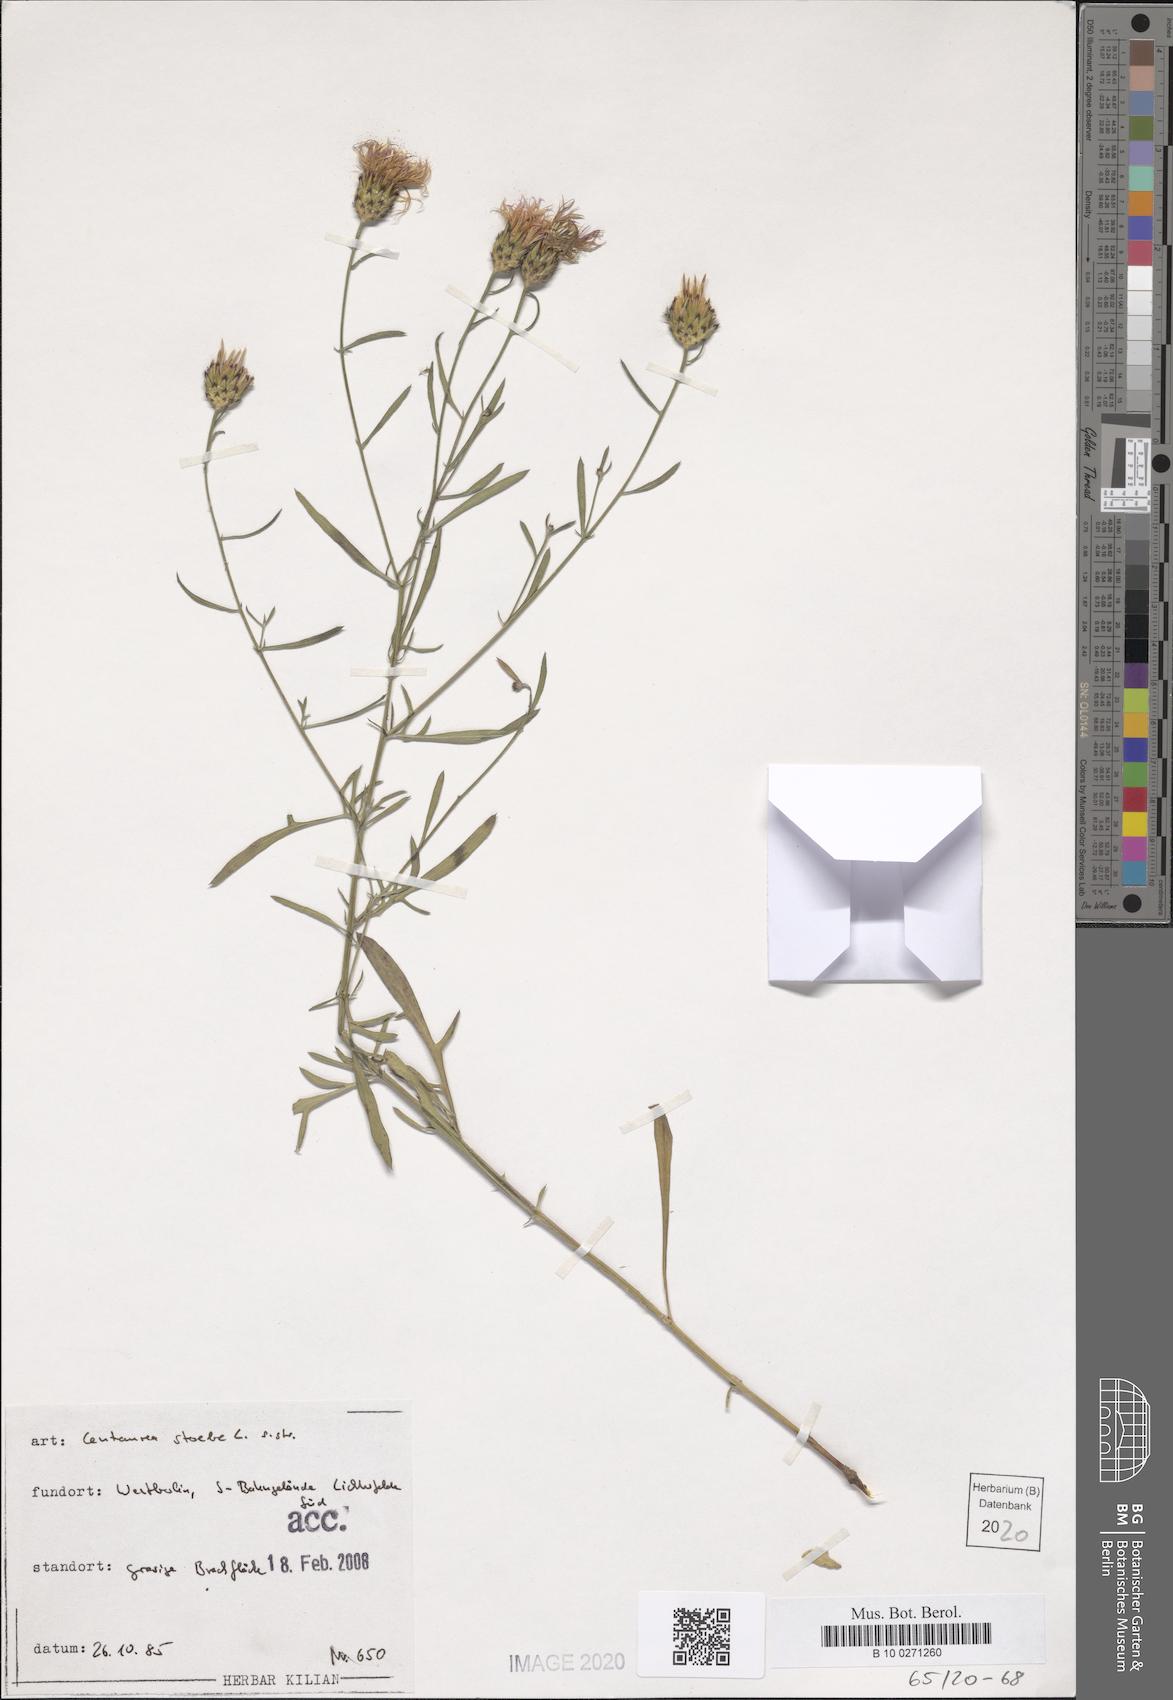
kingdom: Plantae
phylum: Tracheophyta
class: Magnoliopsida
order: Asterales
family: Asteraceae
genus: Centaurea
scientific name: Centaurea stoebe
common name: Spotted knapweed
